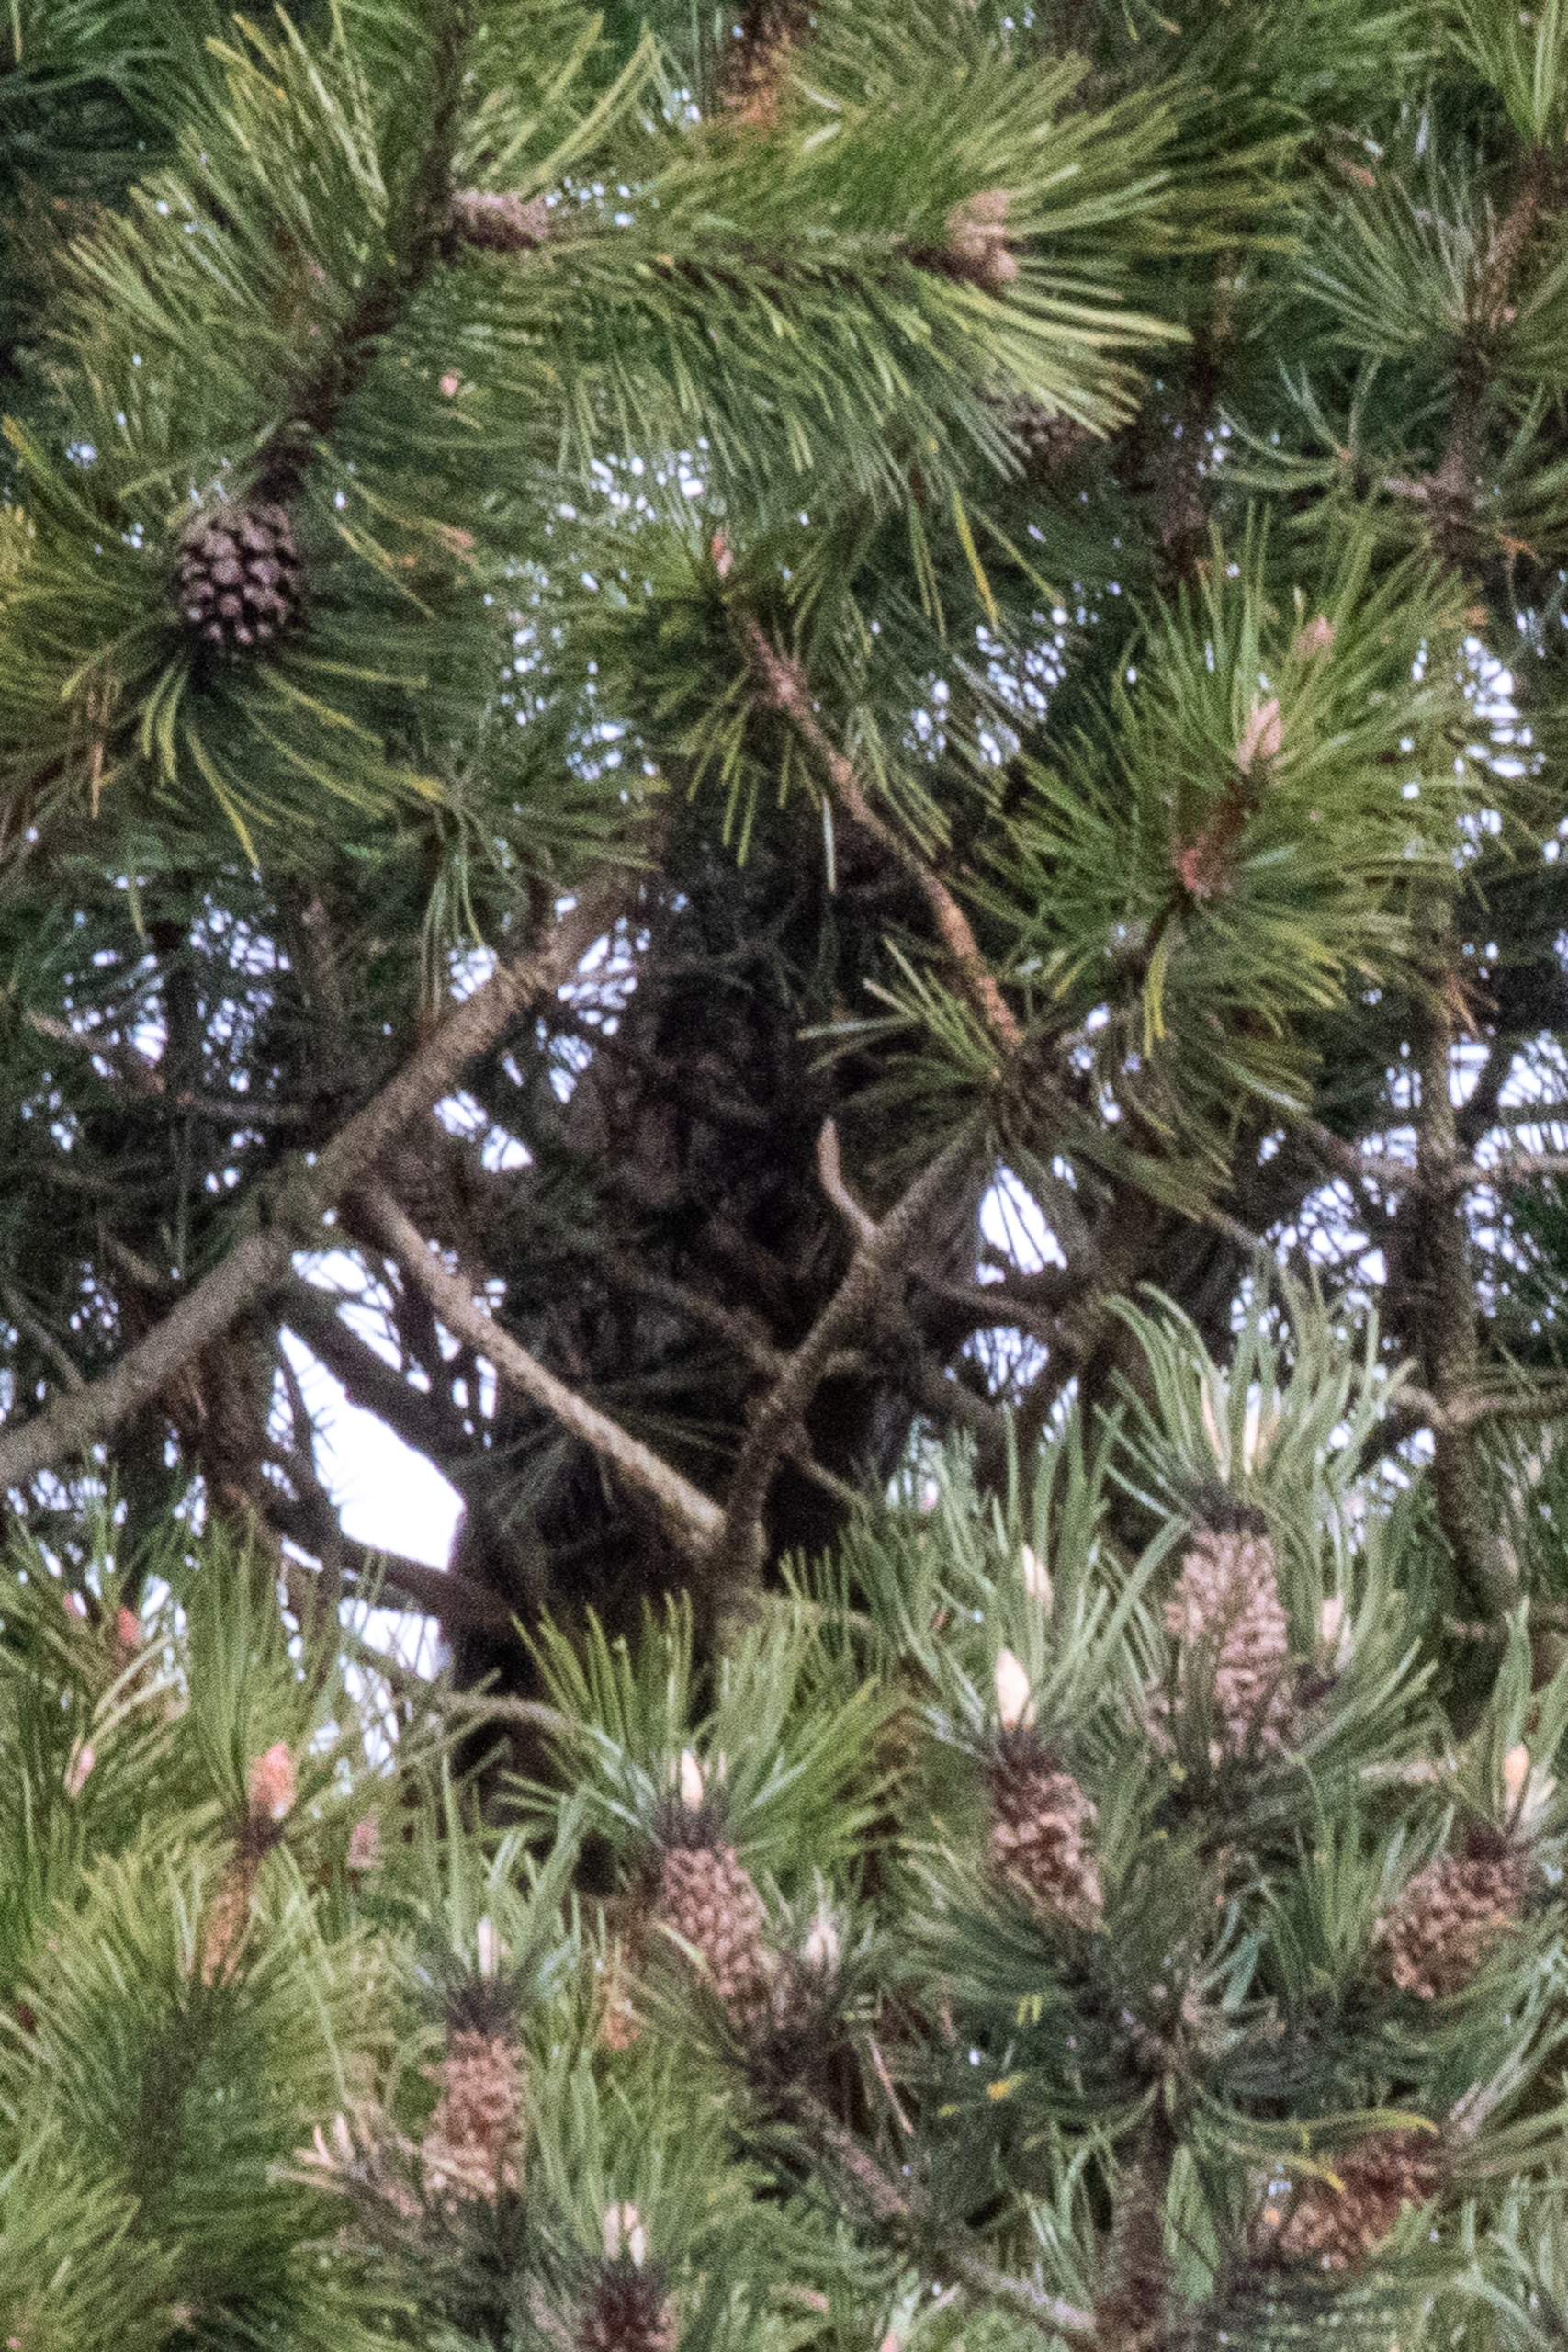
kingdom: Animalia
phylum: Chordata
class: Aves
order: Strigiformes
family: Strigidae
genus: Asio
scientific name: Asio otus
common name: Skovhornugle
